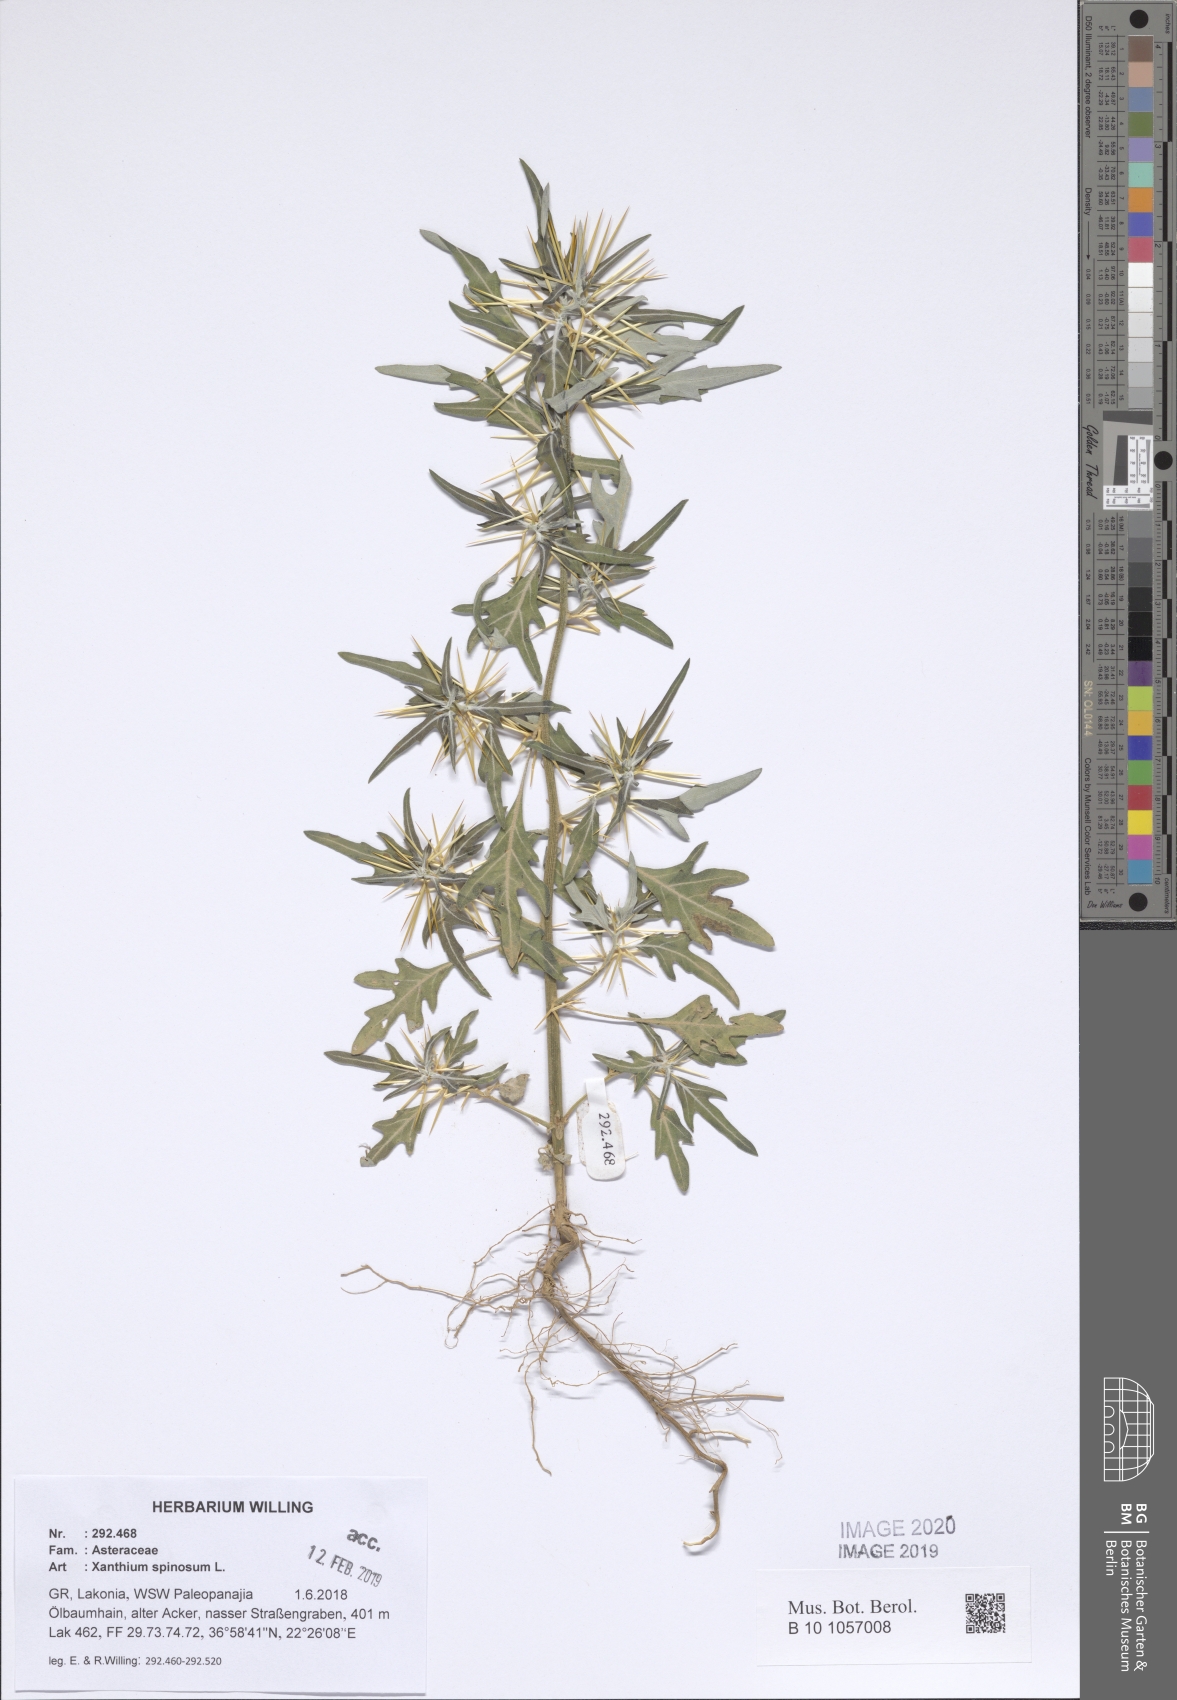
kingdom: Plantae
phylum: Tracheophyta
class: Magnoliopsida
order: Asterales
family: Asteraceae
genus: Xanthium
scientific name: Xanthium spinosum
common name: Spiny cocklebur
